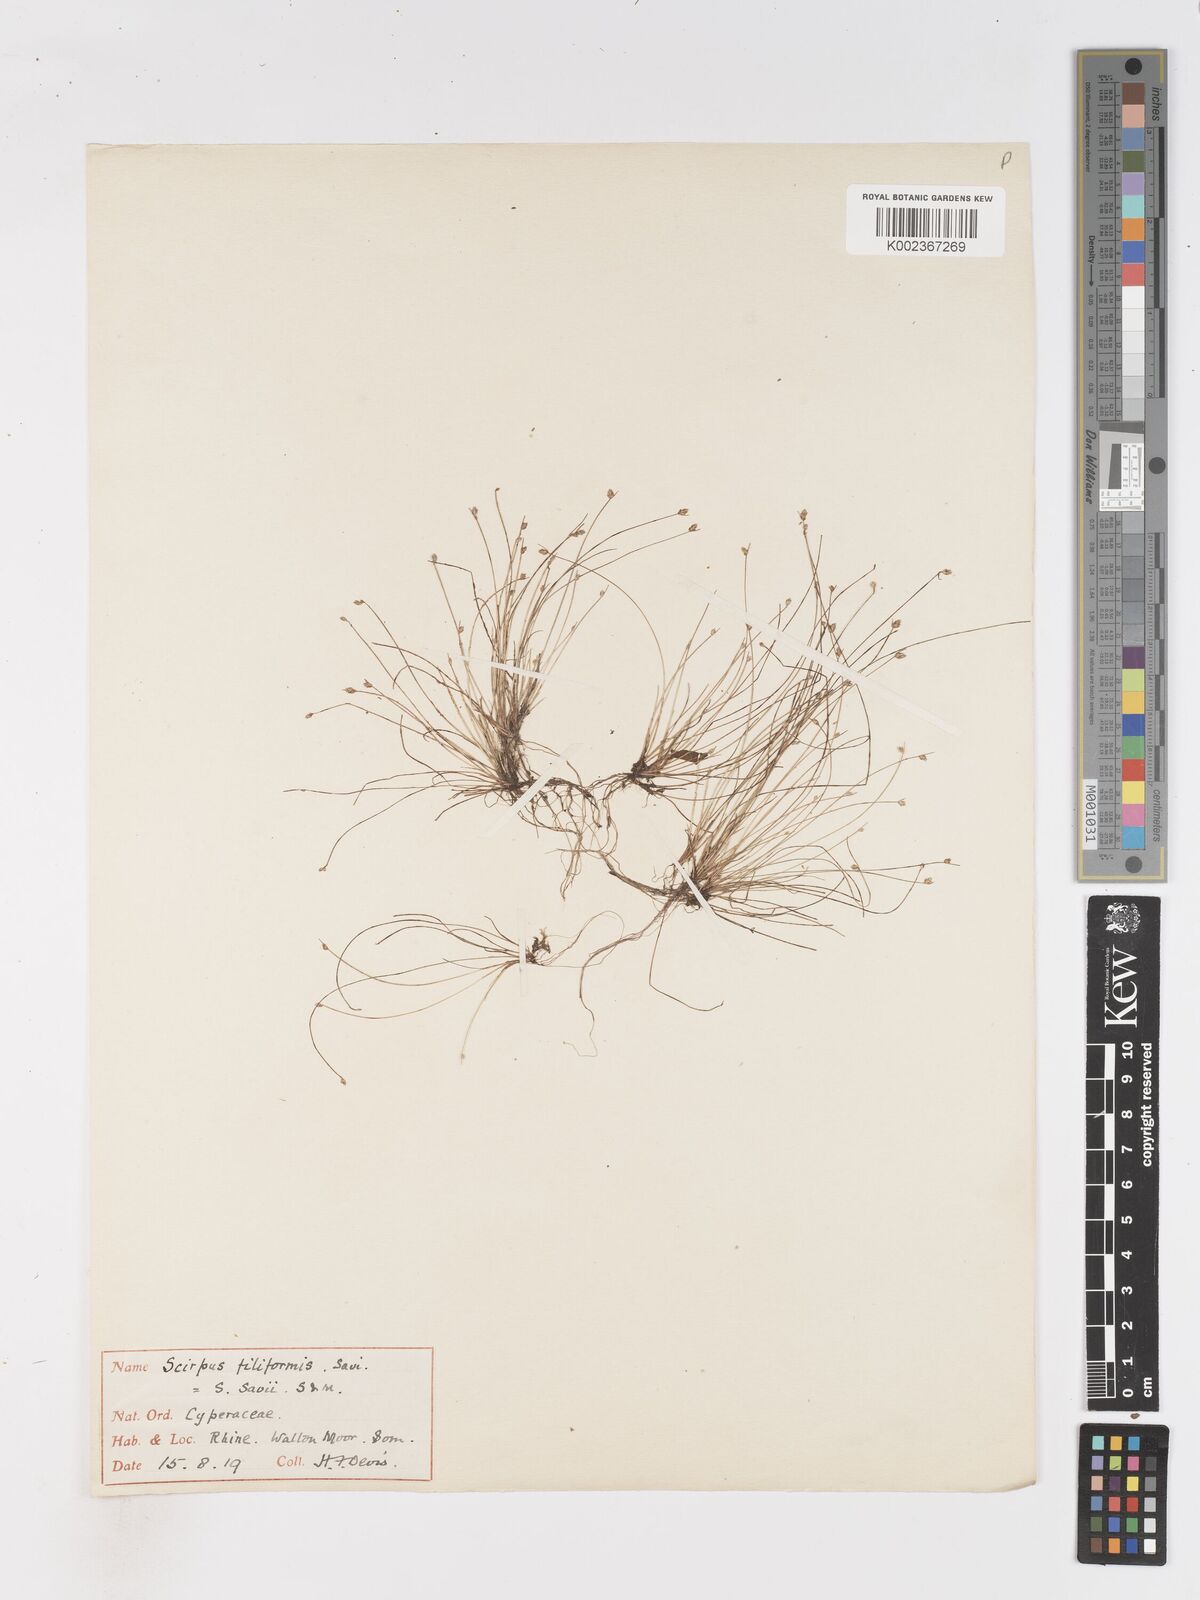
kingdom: Plantae
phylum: Tracheophyta
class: Liliopsida
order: Poales
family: Cyperaceae
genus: Isolepis
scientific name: Isolepis cernua
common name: Slender club-rush
